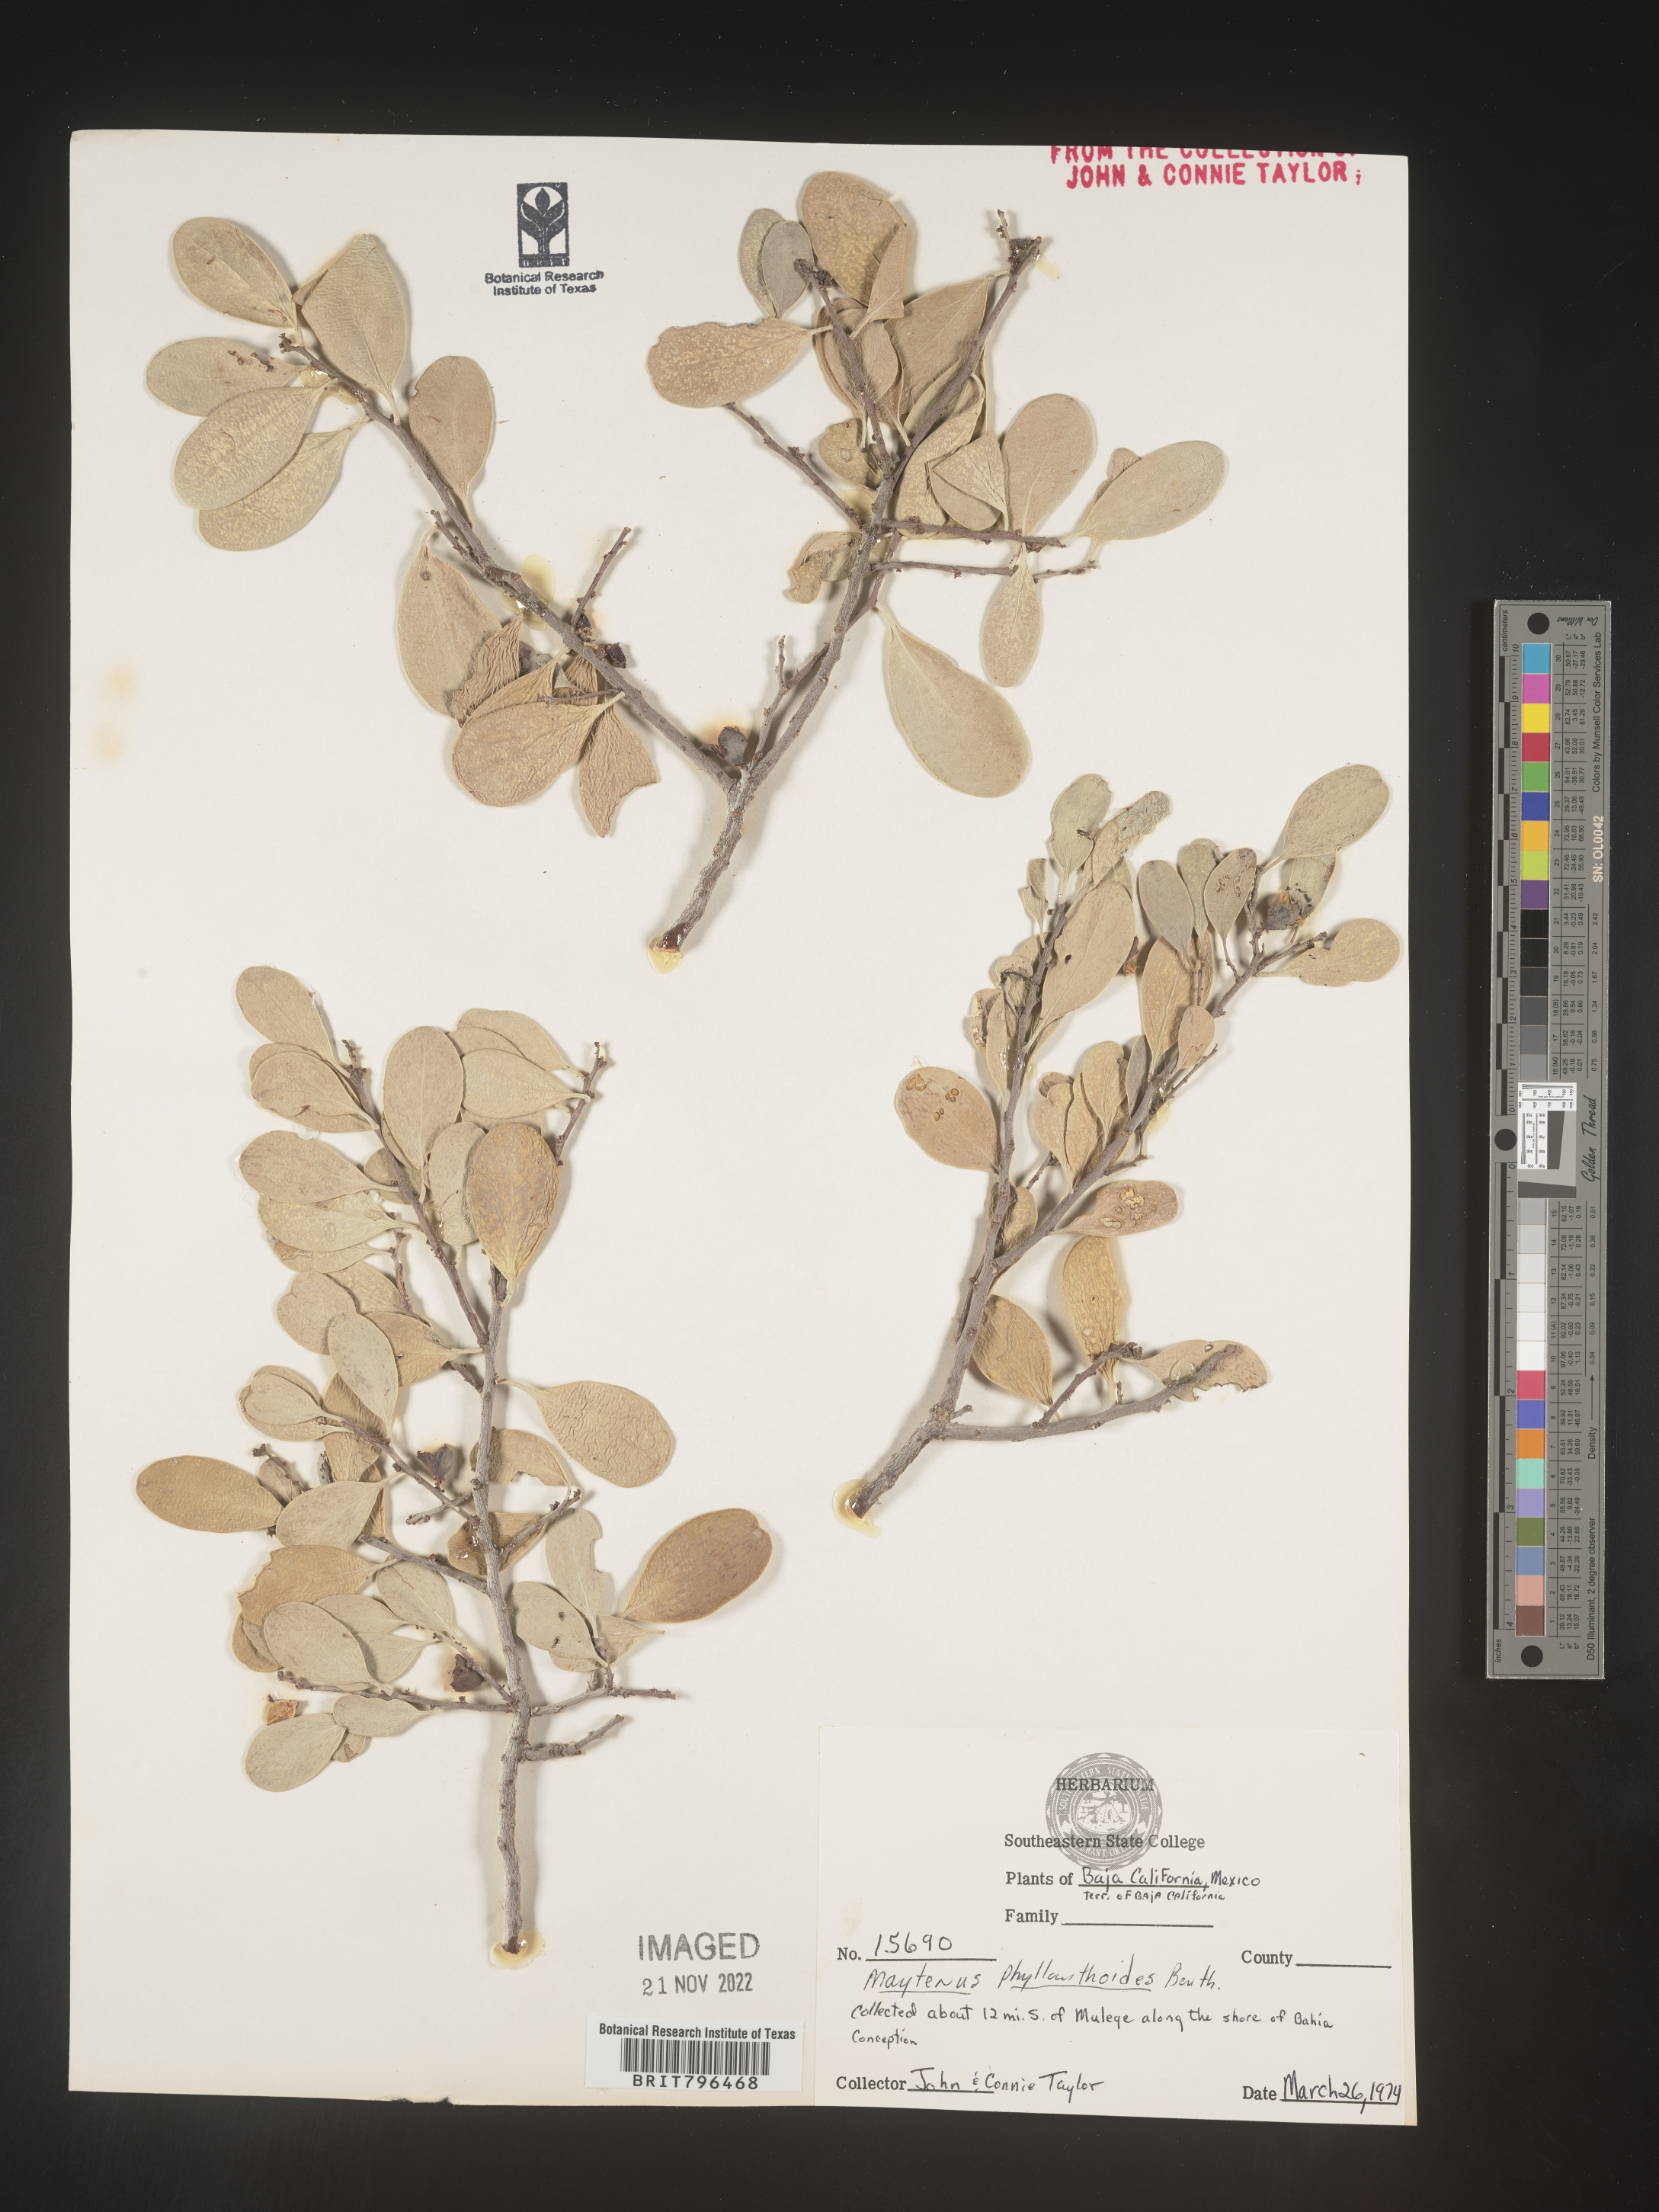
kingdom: Plantae
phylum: Tracheophyta
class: Magnoliopsida
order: Celastrales
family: Celastraceae
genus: Maytenus
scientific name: Maytenus
